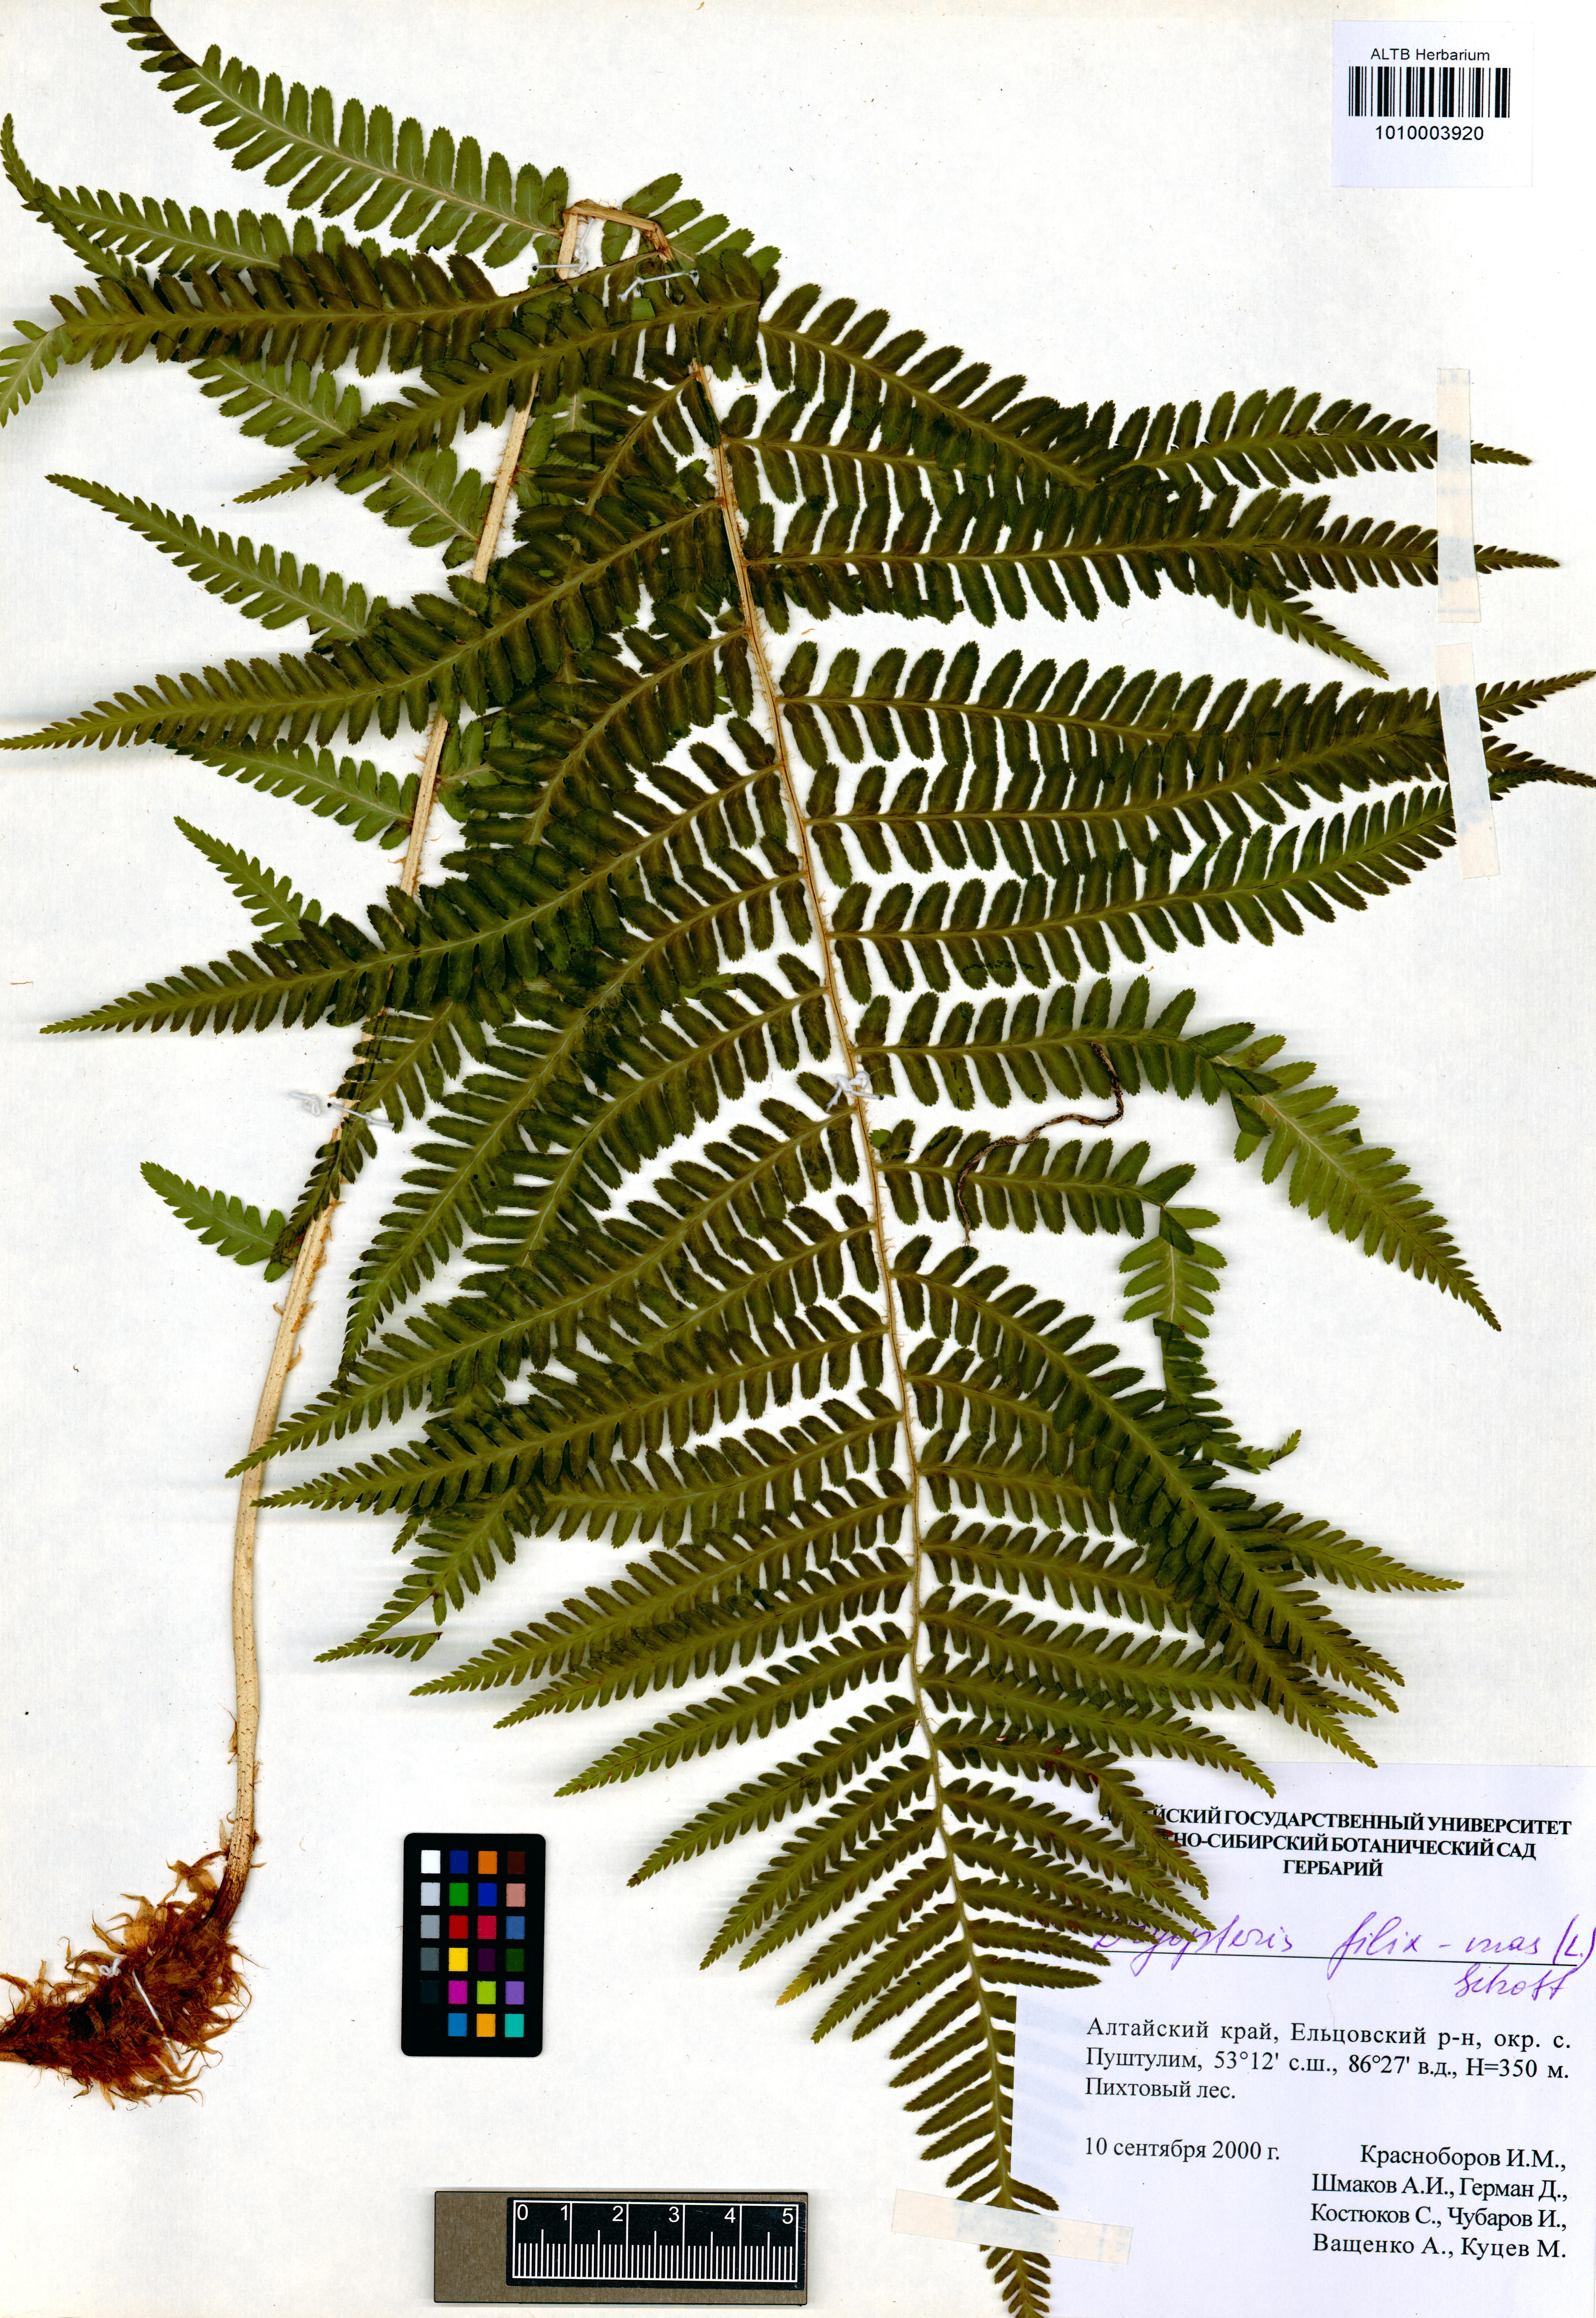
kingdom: Plantae
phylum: Tracheophyta
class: Polypodiopsida
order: Polypodiales
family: Dryopteridaceae
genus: Dryopteris
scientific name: Dryopteris filix-mas
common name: Male fern
